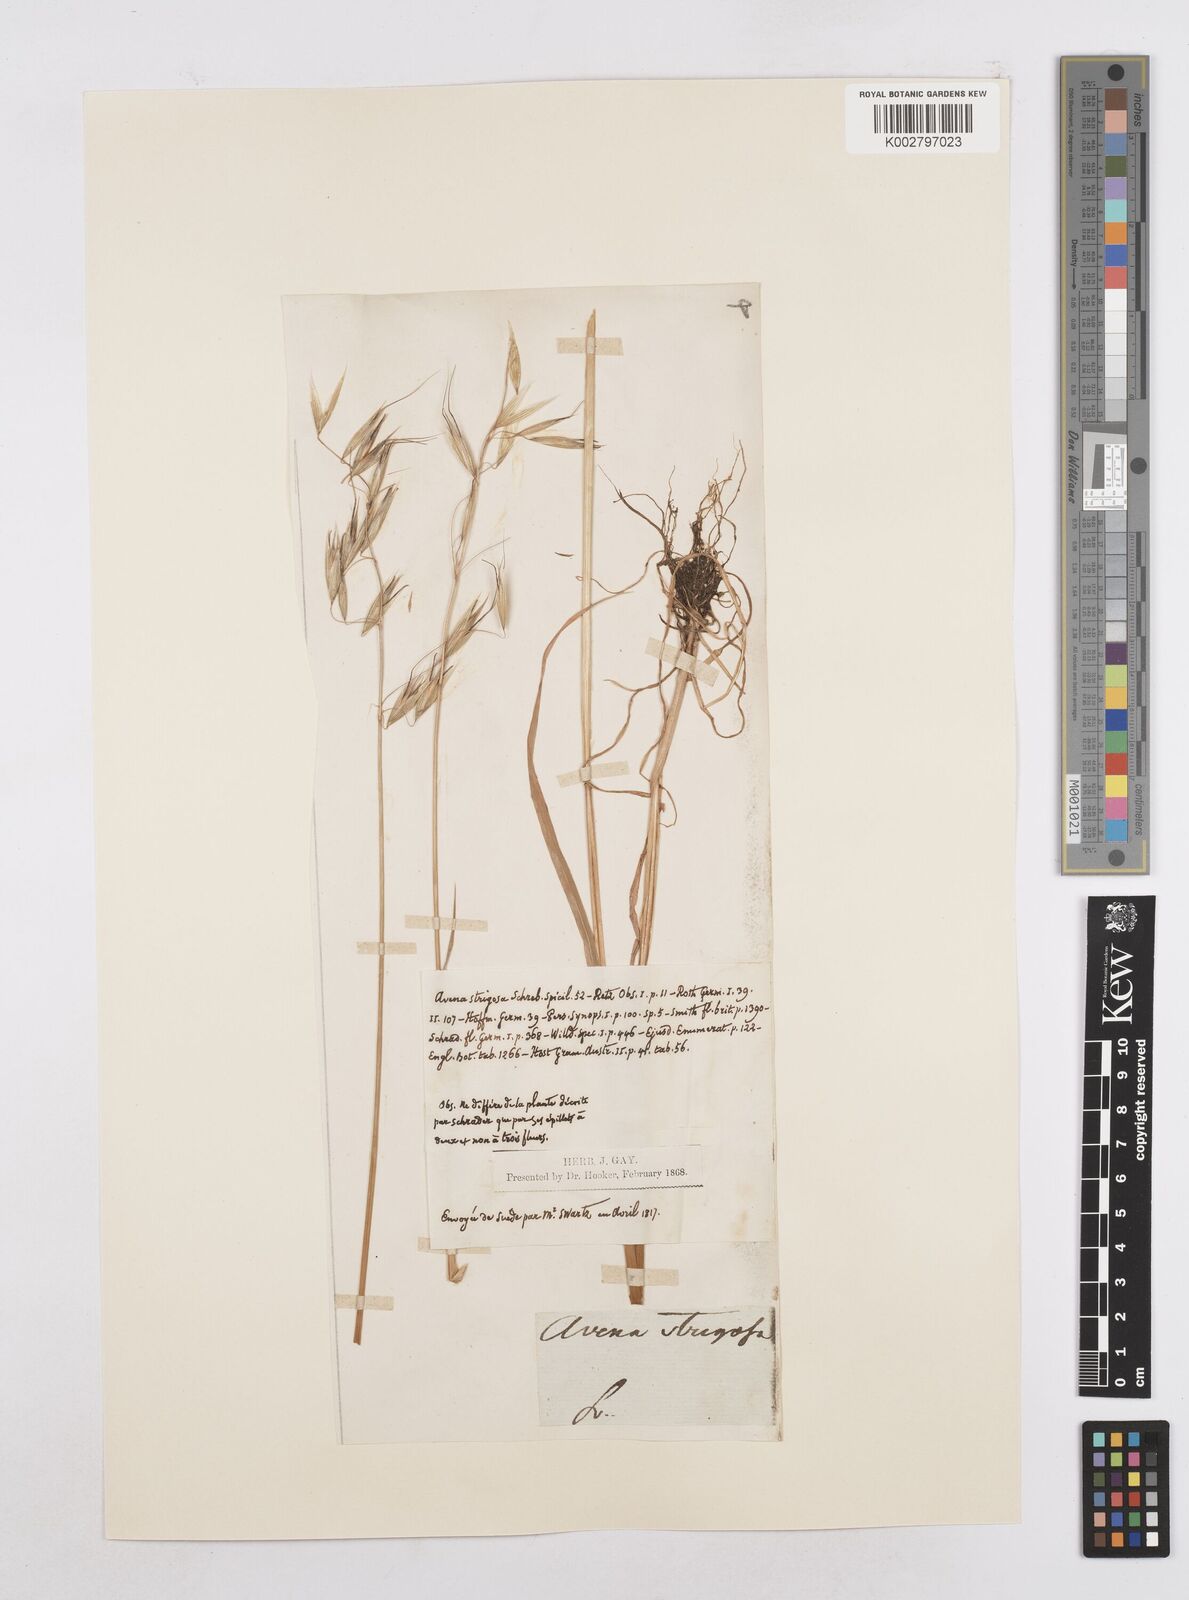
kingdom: Plantae
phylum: Tracheophyta
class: Liliopsida
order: Poales
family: Poaceae
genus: Avena
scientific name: Avena strigosa
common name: Bristle oat
